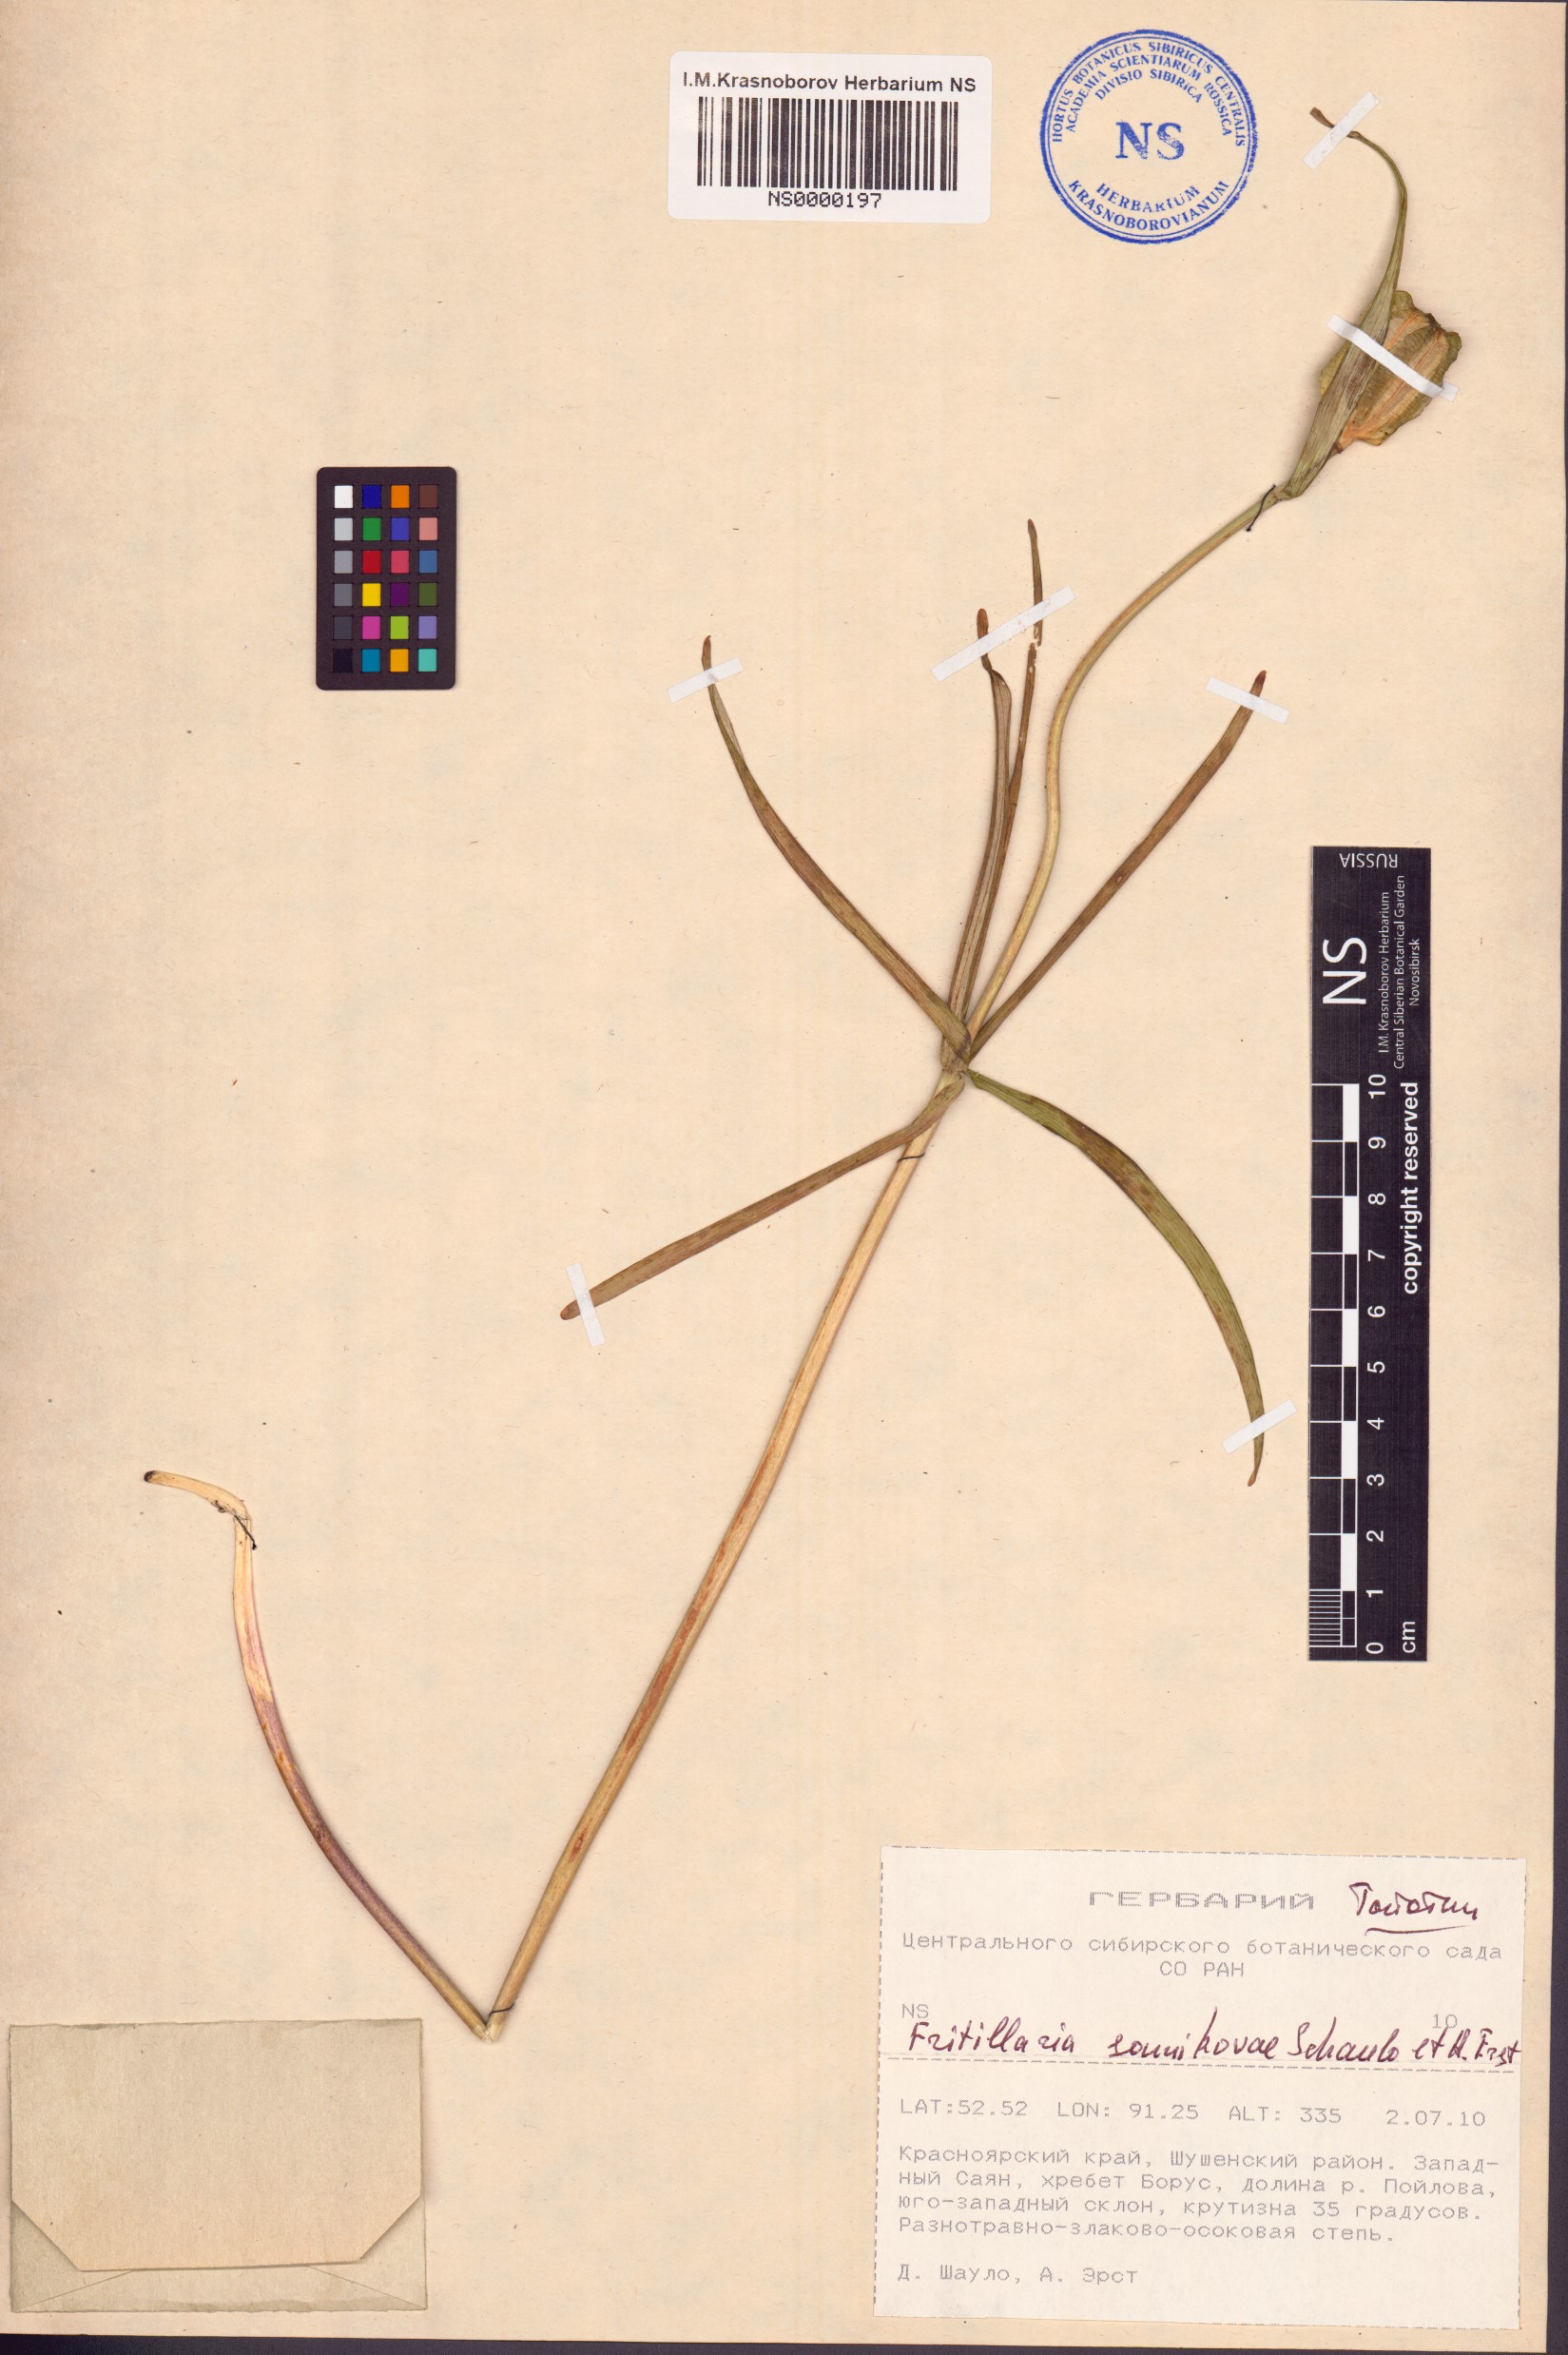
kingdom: Plantae
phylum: Tracheophyta
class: Liliopsida
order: Liliales
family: Liliaceae
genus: Fritillaria
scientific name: Fritillaria sonnikovae
